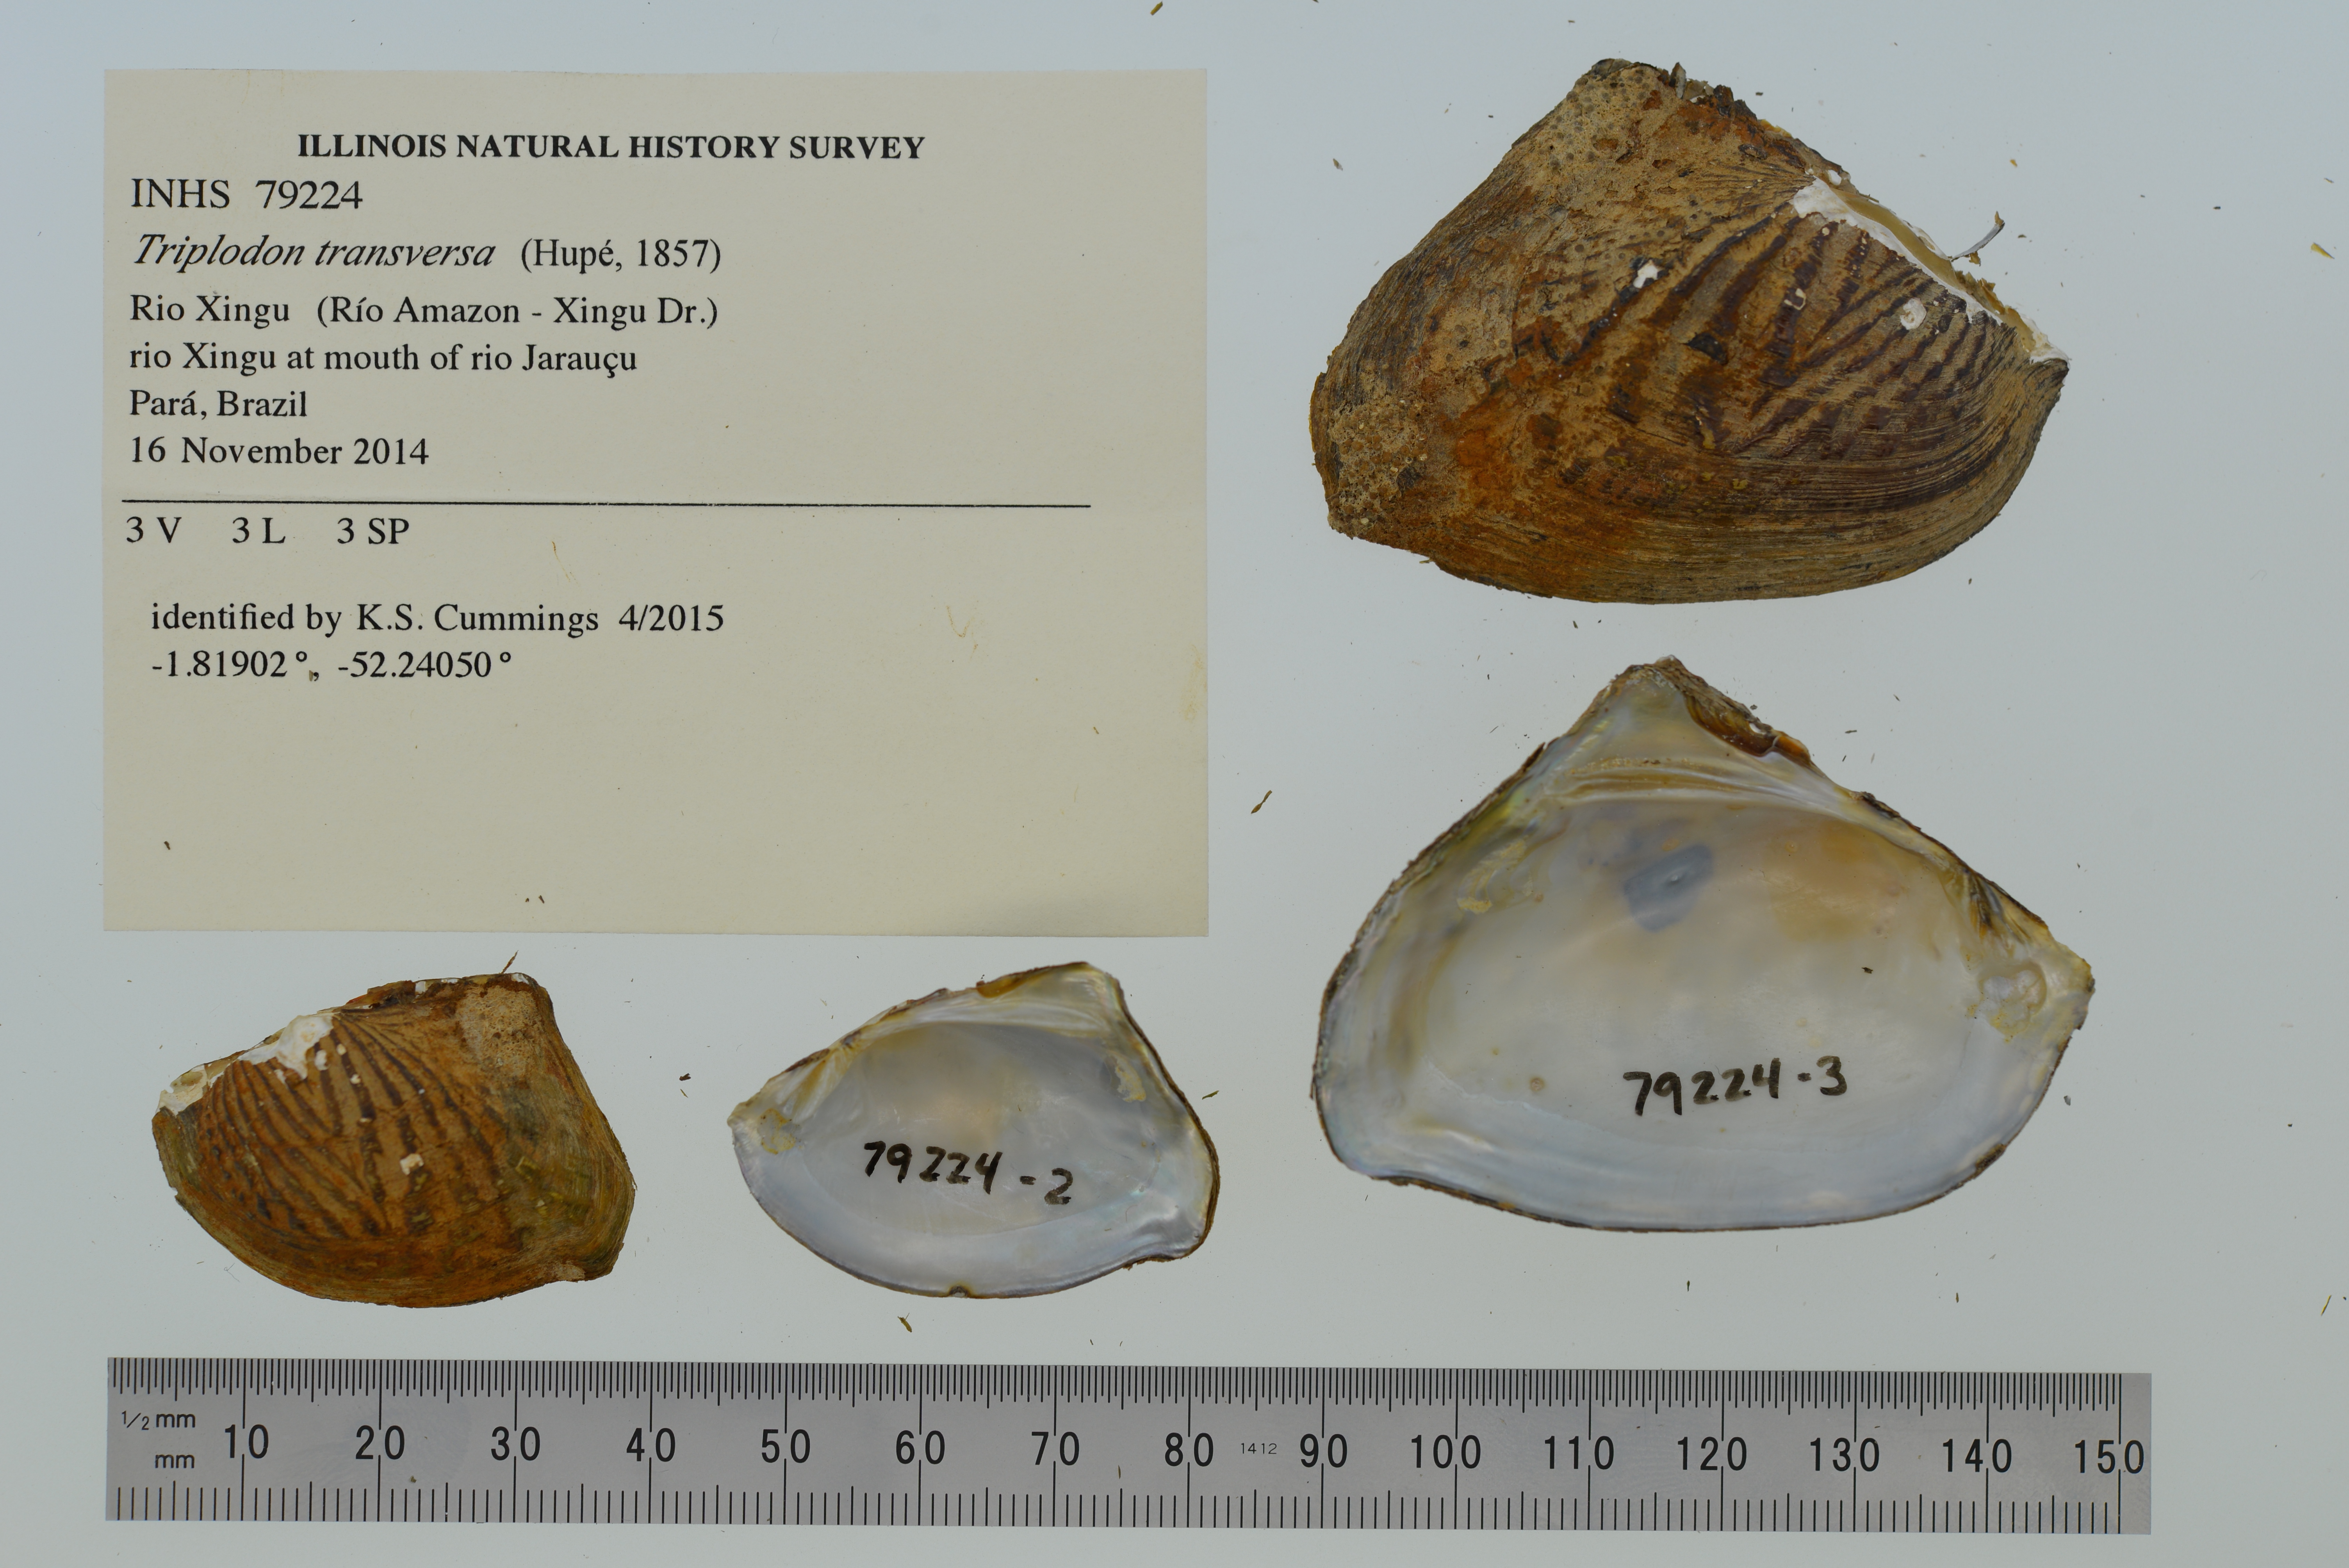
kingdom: Animalia
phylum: Mollusca
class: Bivalvia
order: Unionida
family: Hyriidae
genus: Triplodon
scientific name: Triplodon
